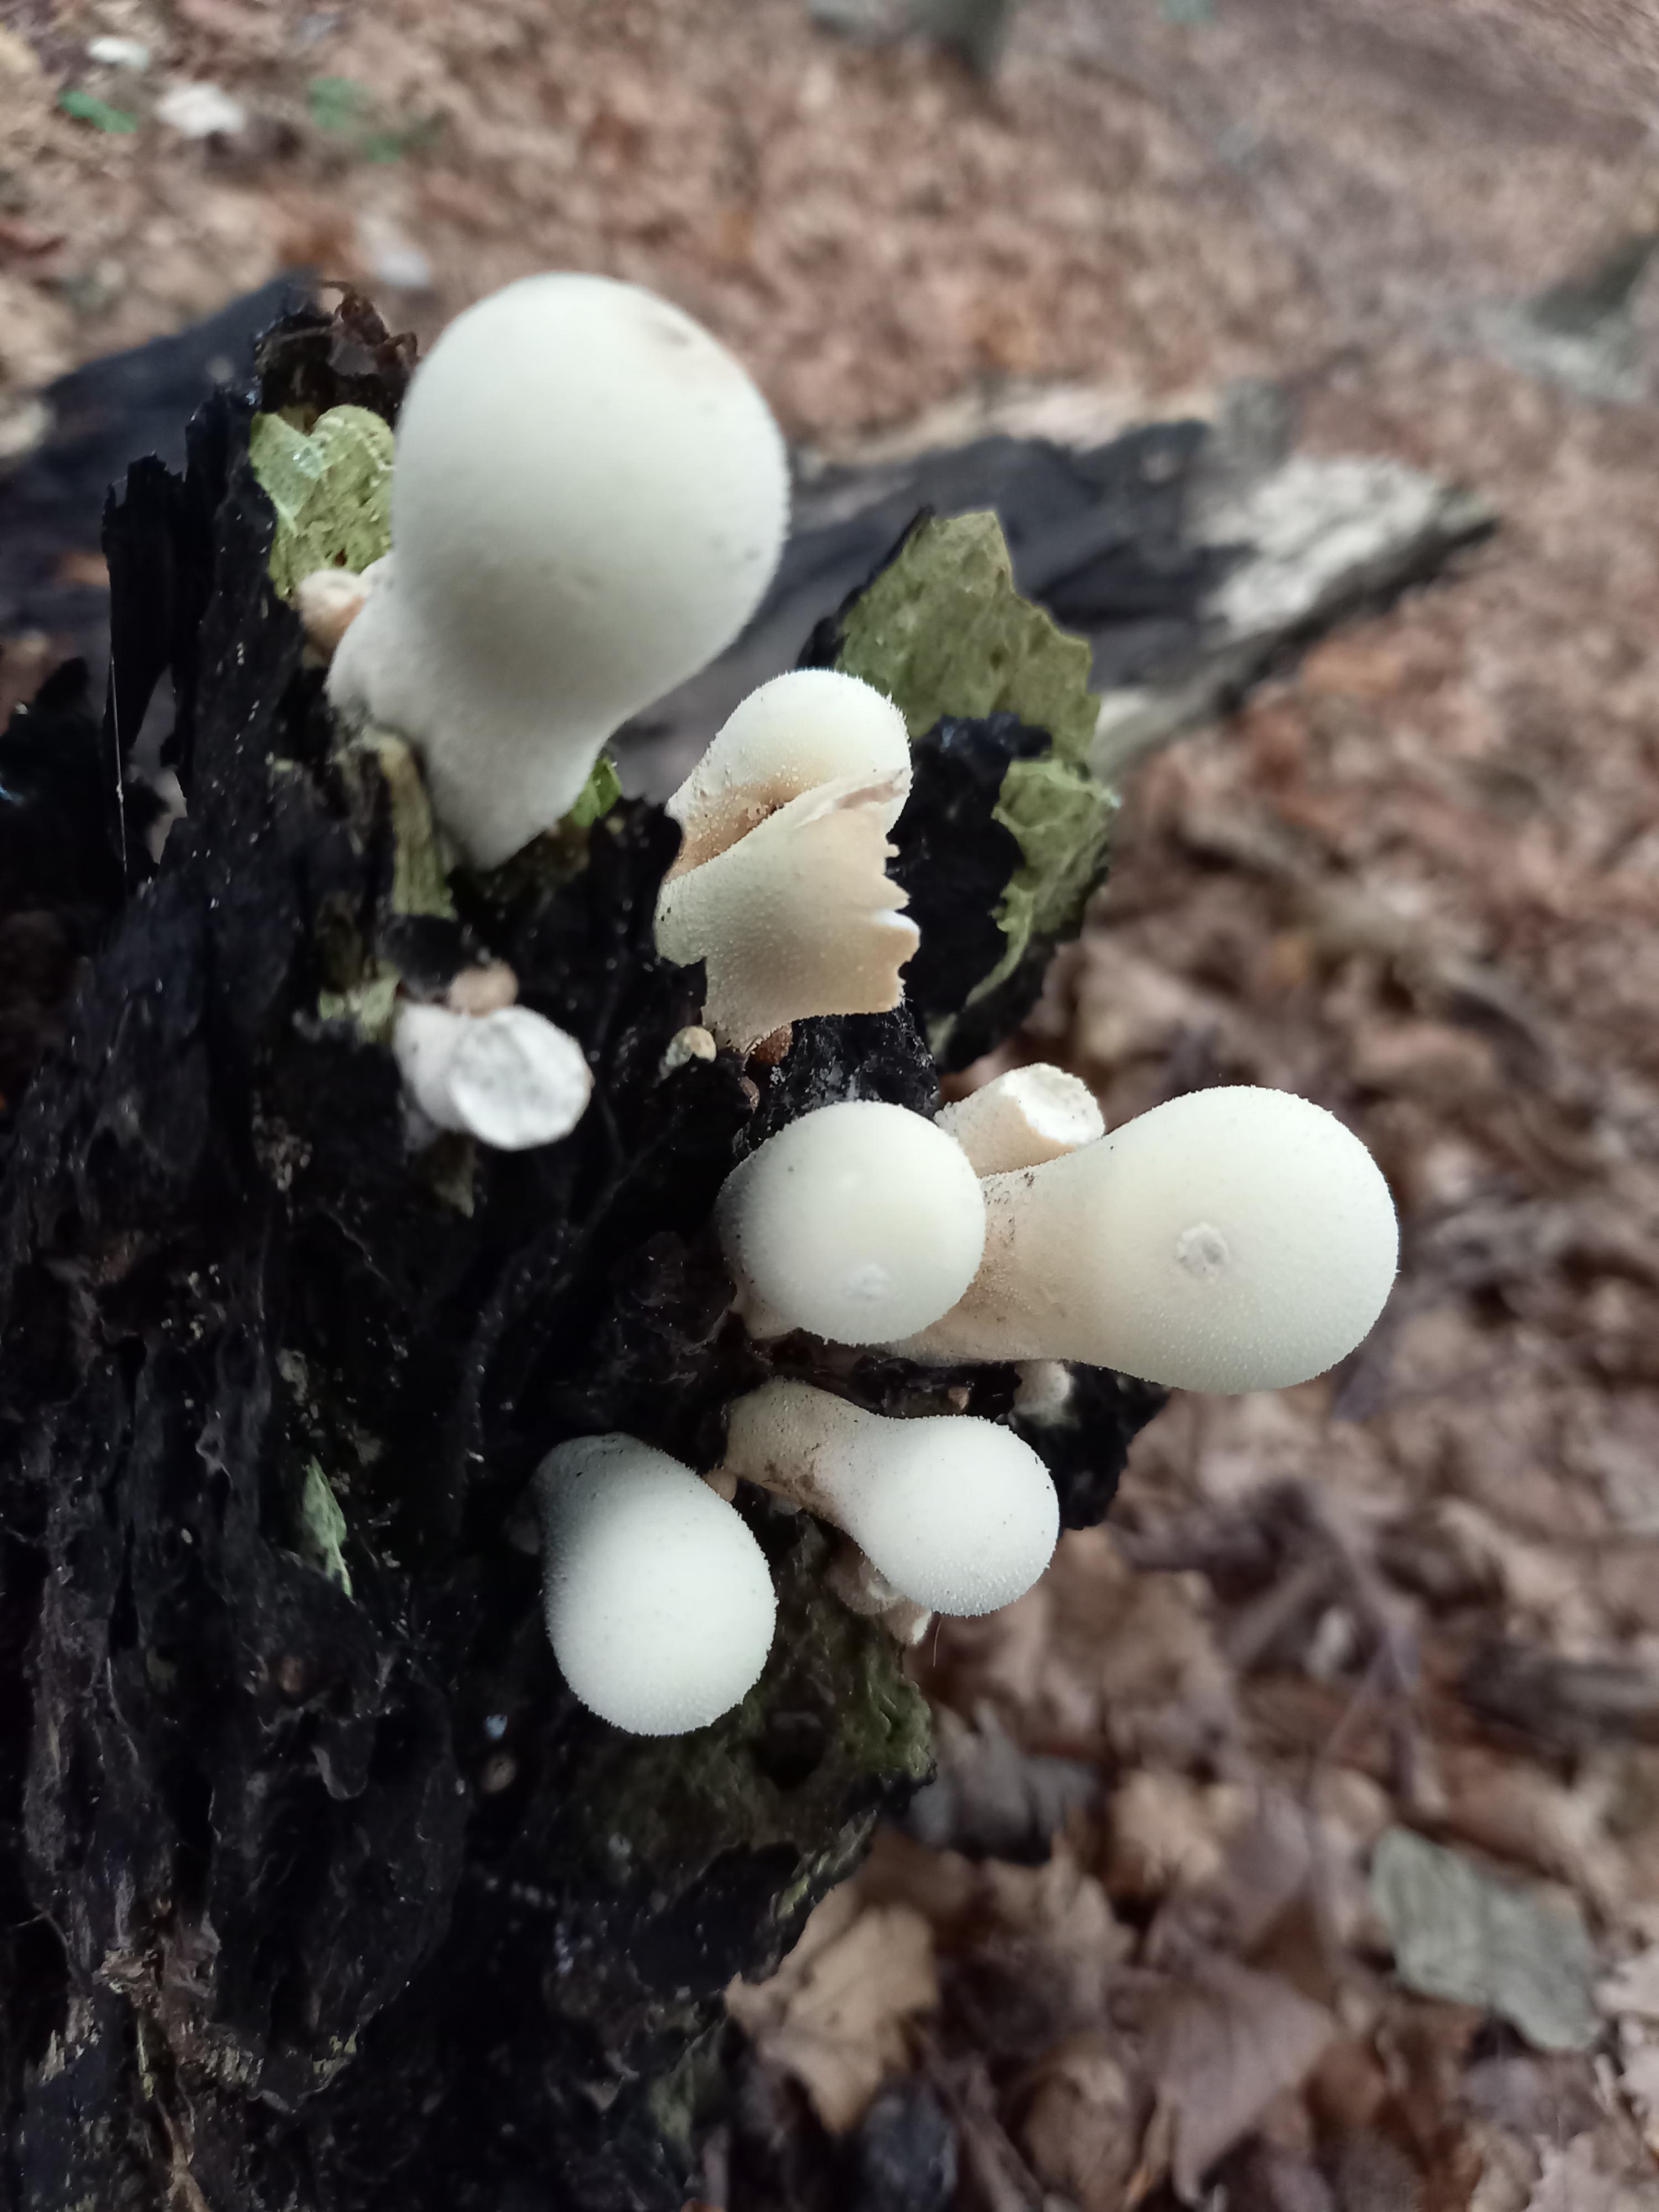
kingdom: Fungi
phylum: Basidiomycota
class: Agaricomycetes
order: Agaricales
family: Lycoperdaceae
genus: Apioperdon
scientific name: Apioperdon pyriforme
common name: pære-støvbold
